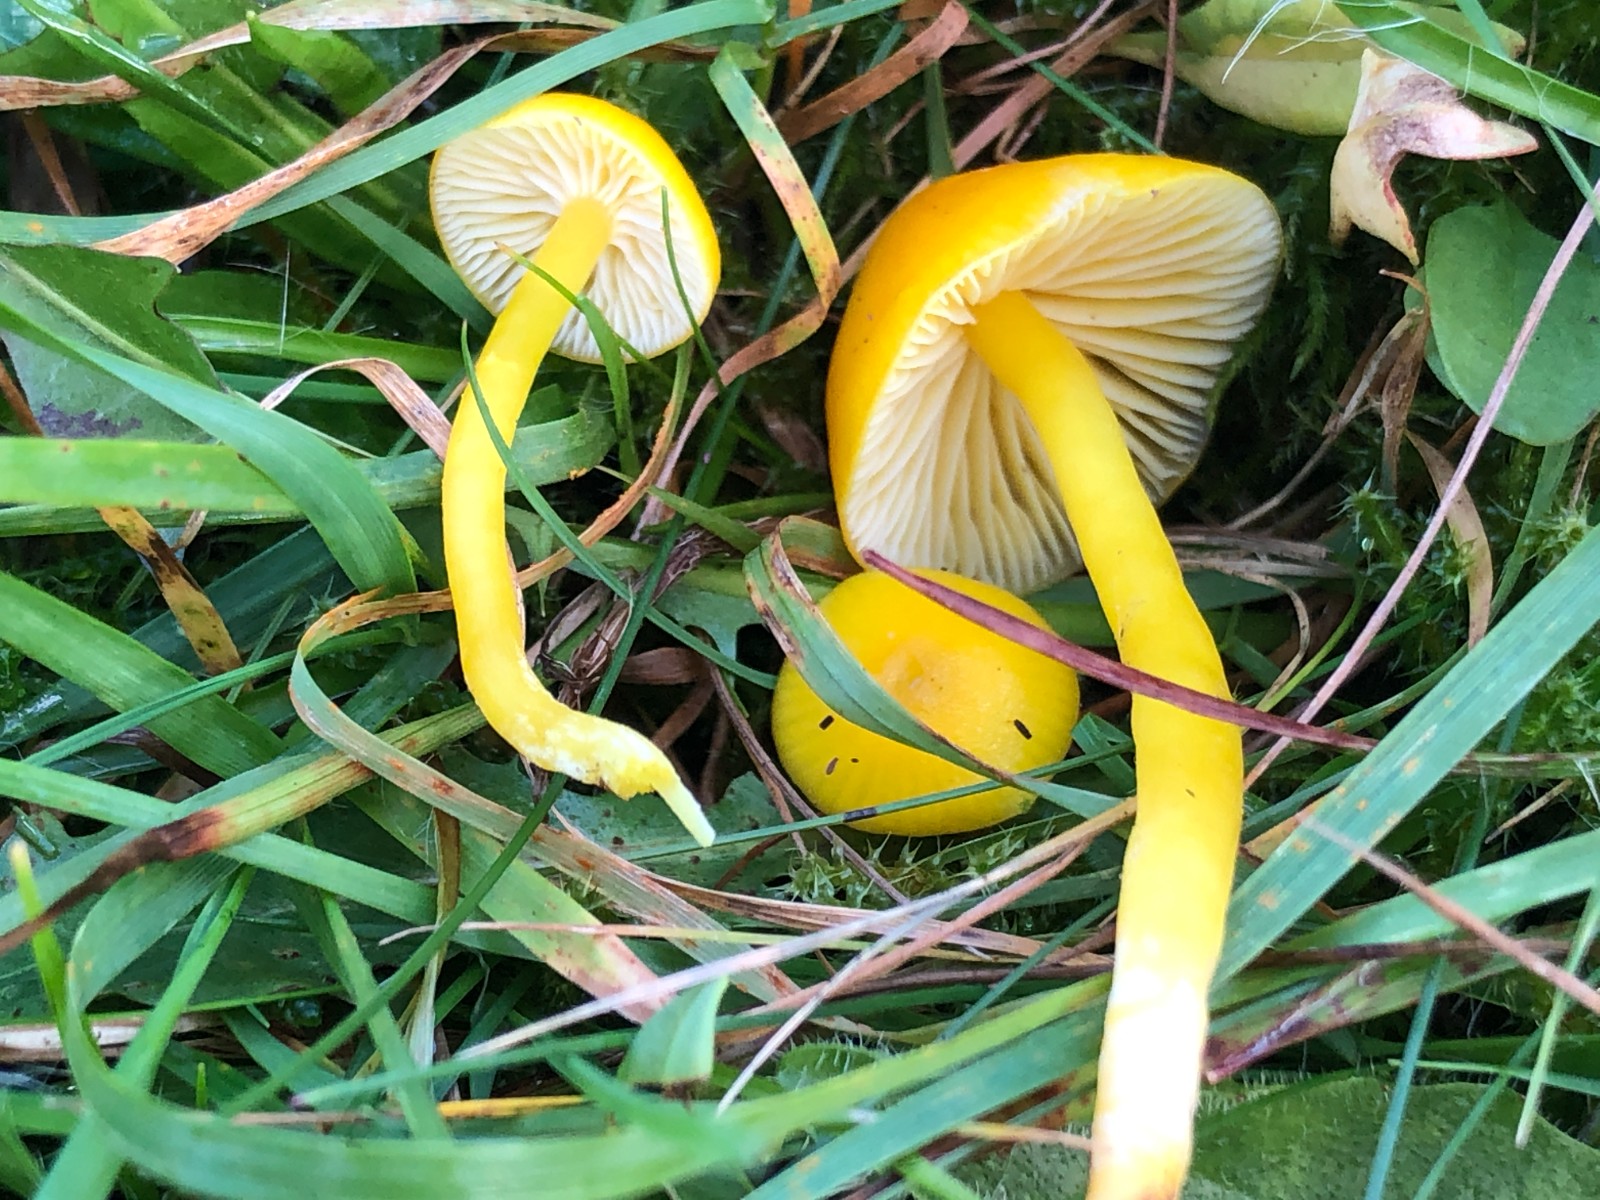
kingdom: Fungi
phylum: Basidiomycota
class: Agaricomycetes
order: Agaricales
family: Hygrophoraceae
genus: Hygrocybe
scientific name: Hygrocybe ceracea
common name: voksgul vokshat
